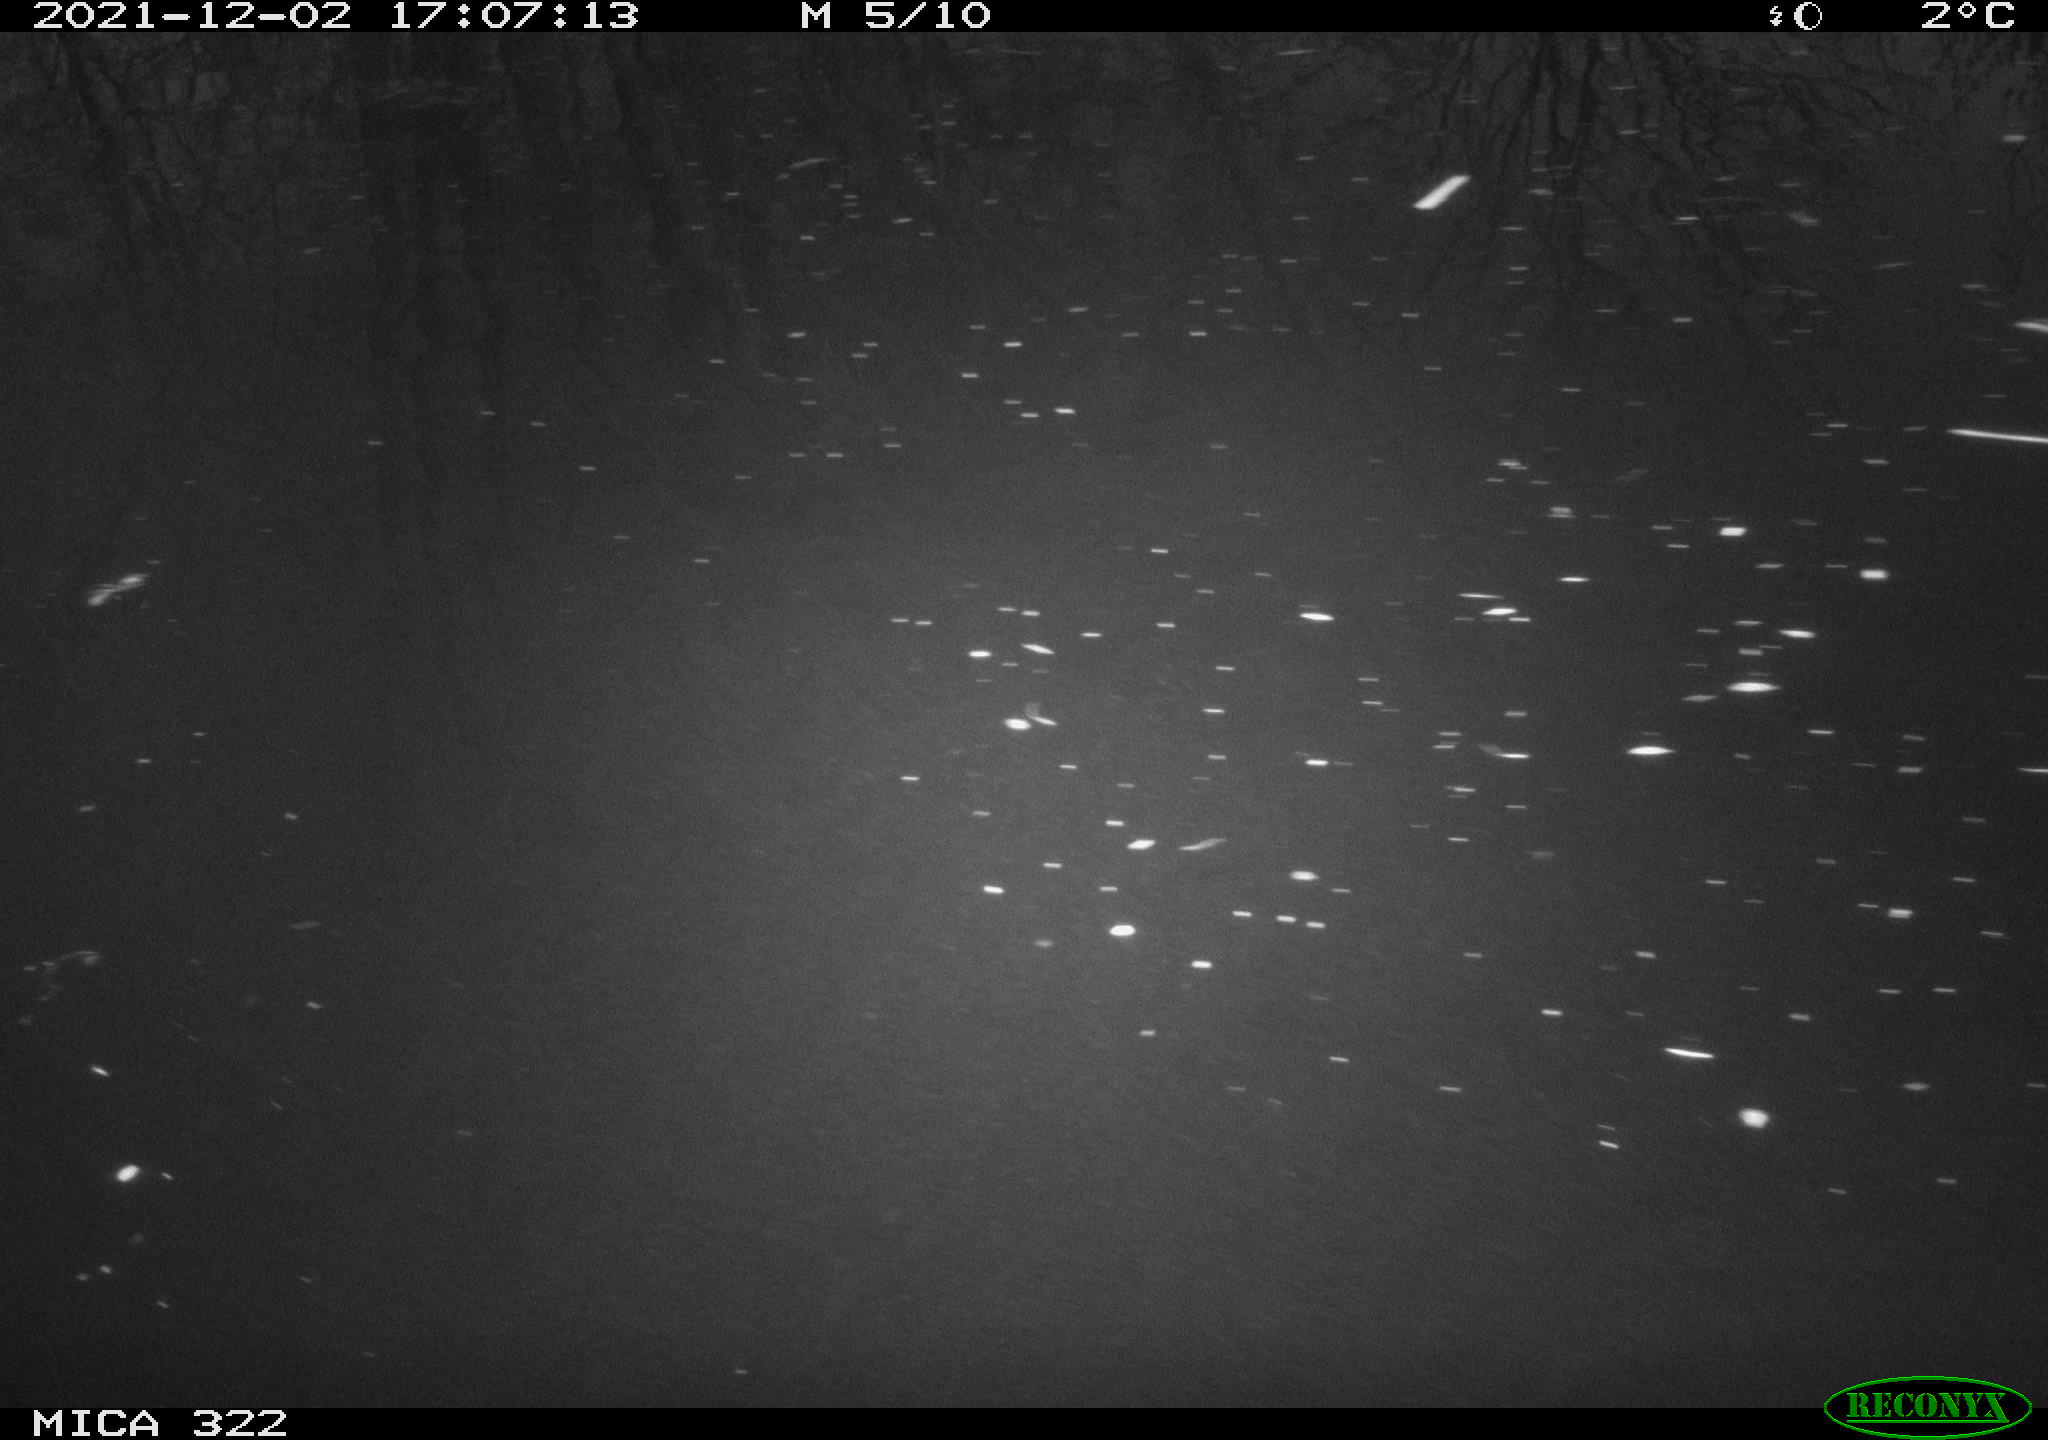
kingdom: Animalia
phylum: Chordata
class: Aves
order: Gruiformes
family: Rallidae
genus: Gallinula
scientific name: Gallinula chloropus
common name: Common moorhen
